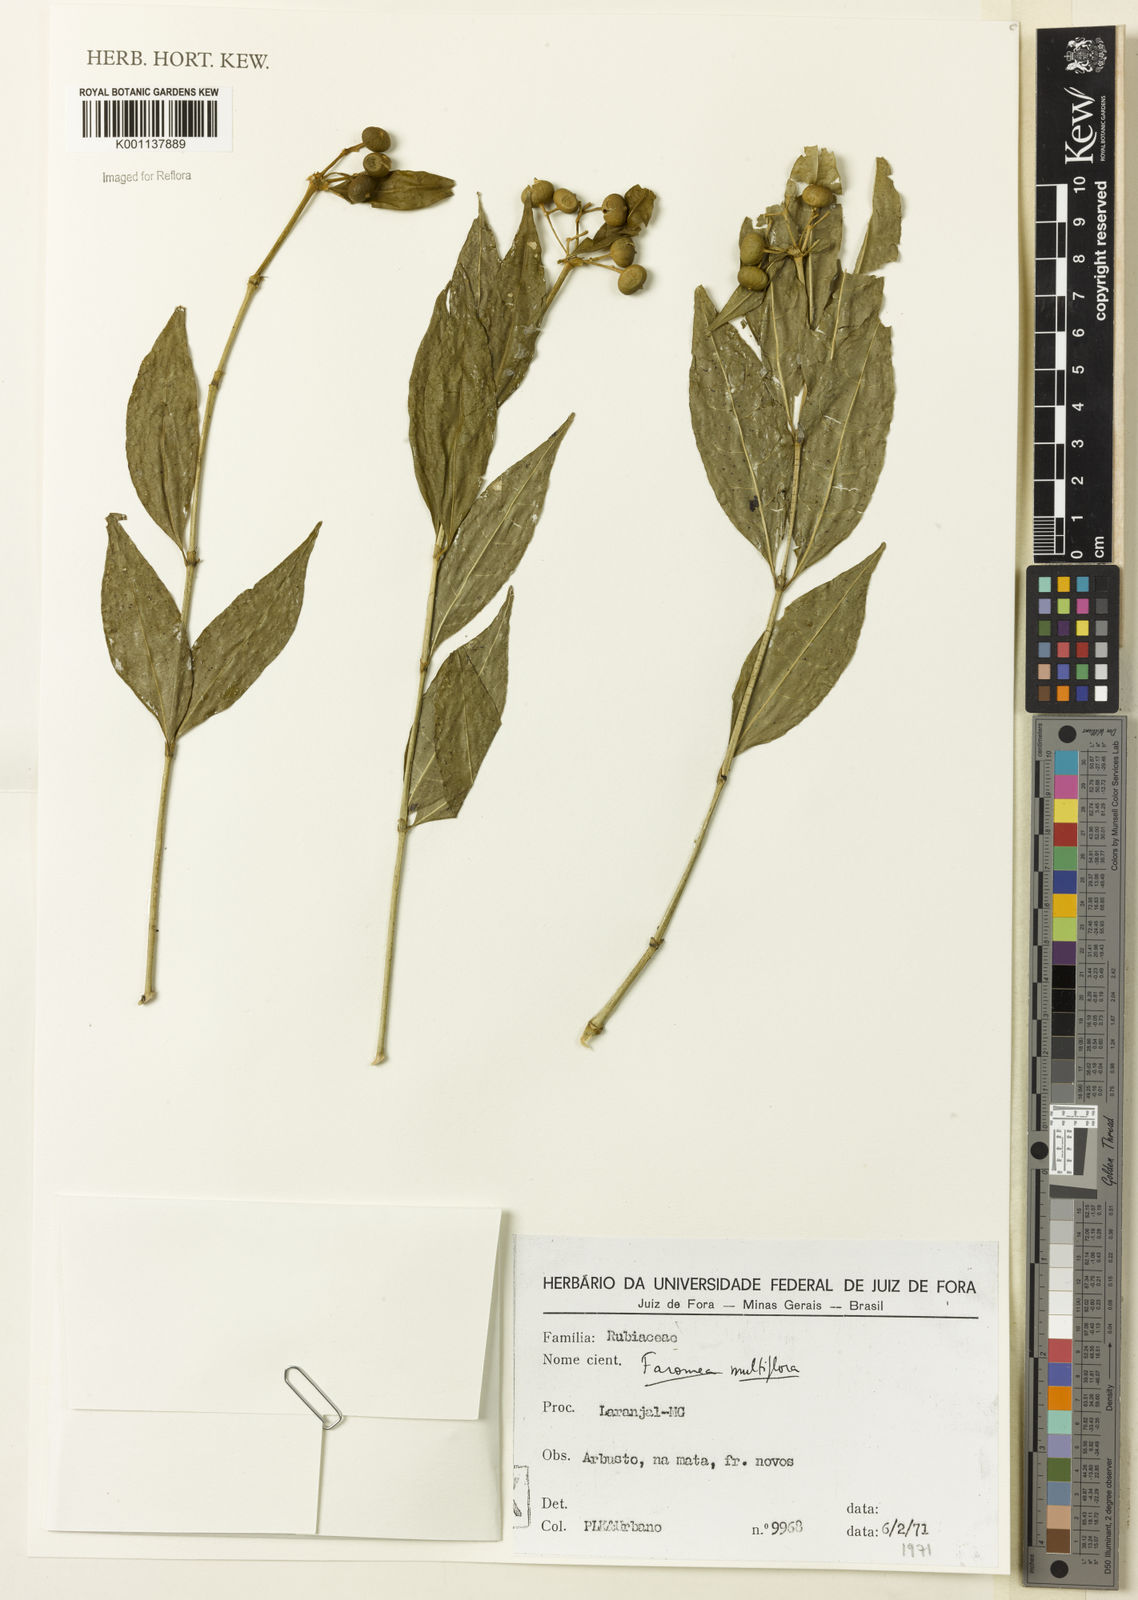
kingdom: Plantae
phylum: Tracheophyta
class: Magnoliopsida
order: Gentianales
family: Rubiaceae
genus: Faramea
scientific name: Faramea multiflora
